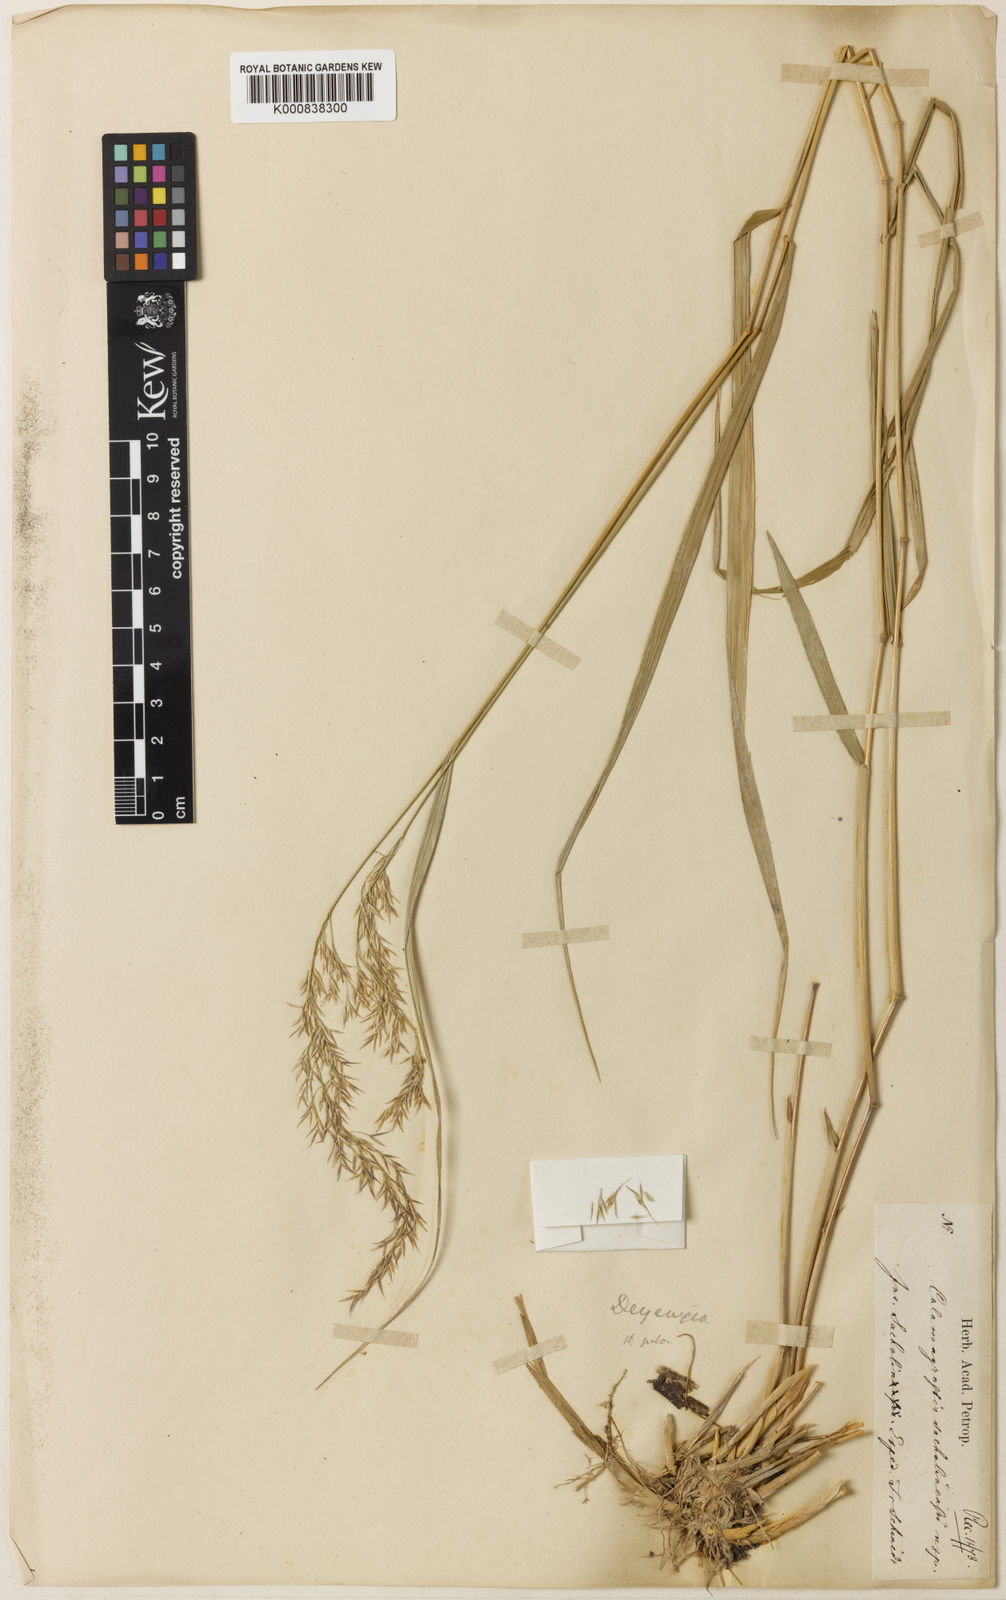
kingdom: Plantae
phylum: Tracheophyta
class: Liliopsida
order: Poales
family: Poaceae
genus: Calamagrostis
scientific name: Calamagrostis sachalinensis
